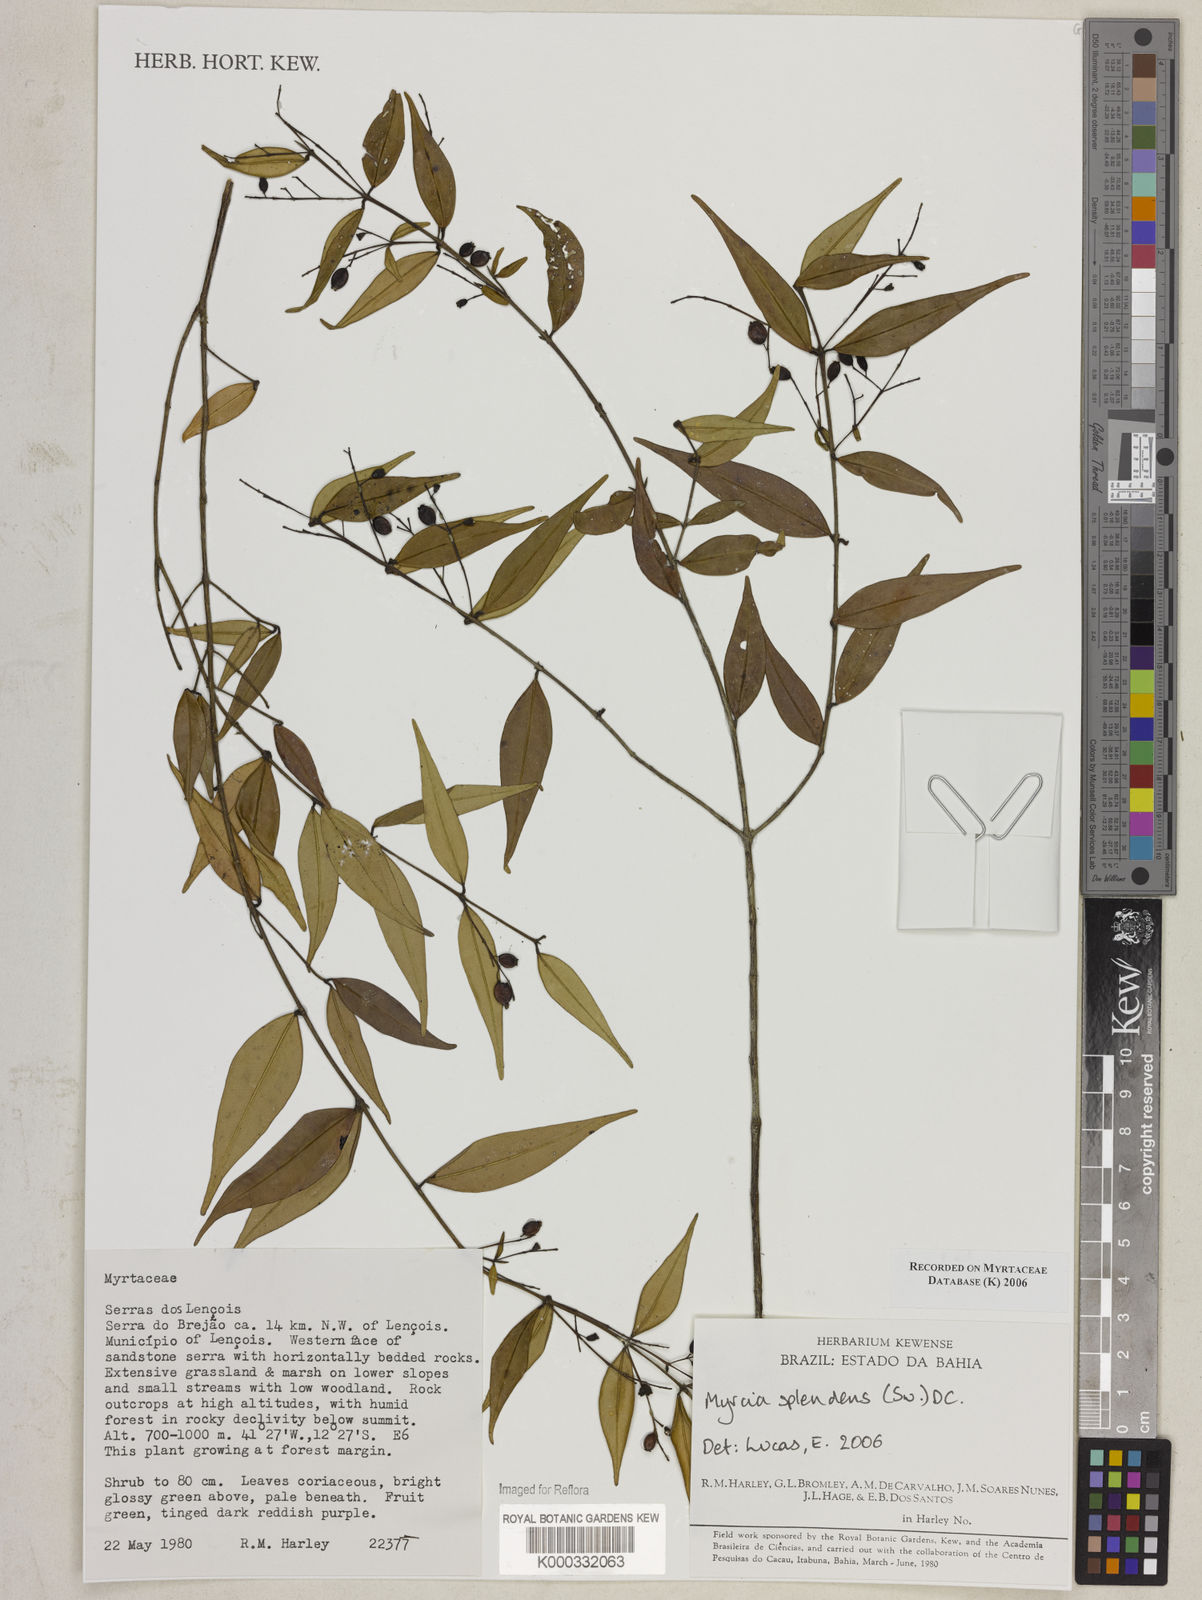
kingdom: Plantae
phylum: Tracheophyta
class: Magnoliopsida
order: Myrtales
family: Myrtaceae
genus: Myrcia
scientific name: Myrcia splendens
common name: Surinam cherry
